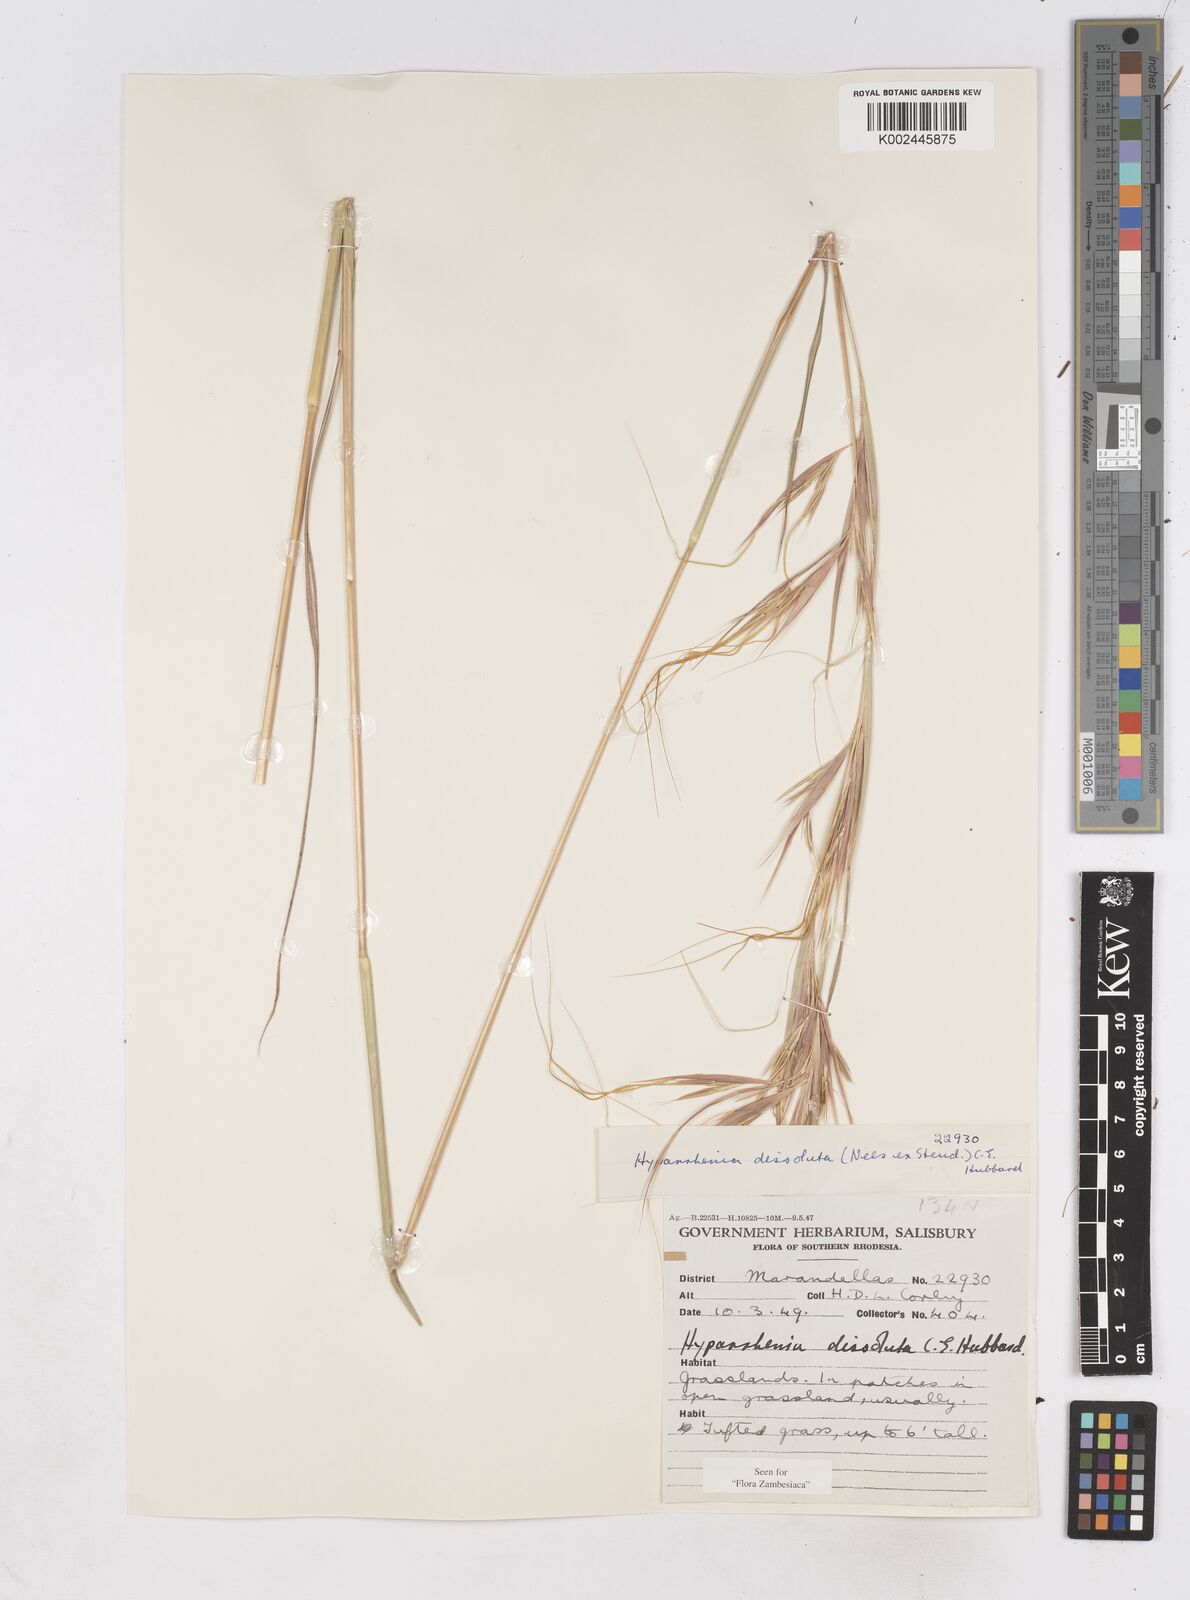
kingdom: Plantae
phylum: Tracheophyta
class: Liliopsida
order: Poales
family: Poaceae
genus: Hyperthelia
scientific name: Hyperthelia dissoluta
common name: Yellow thatching grass
